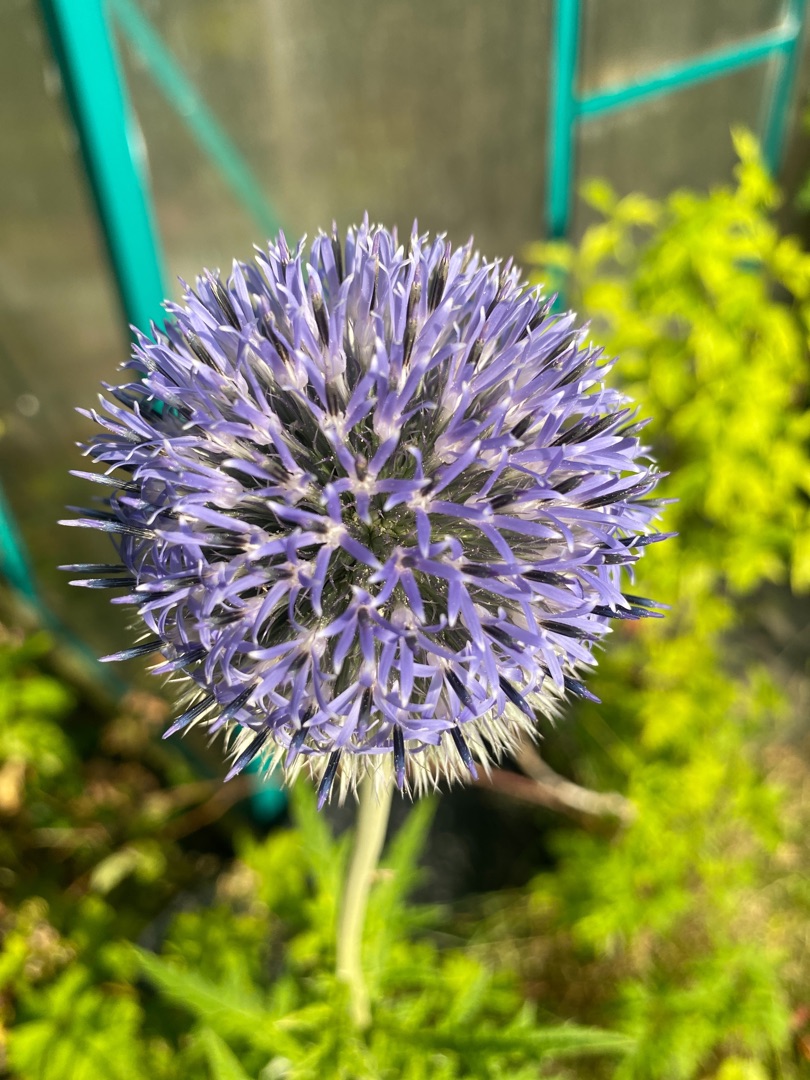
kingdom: Plantae
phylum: Tracheophyta
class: Magnoliopsida
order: Asterales
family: Asteraceae
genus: Echinops
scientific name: Echinops exaltatus
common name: Høj tidselkugle
